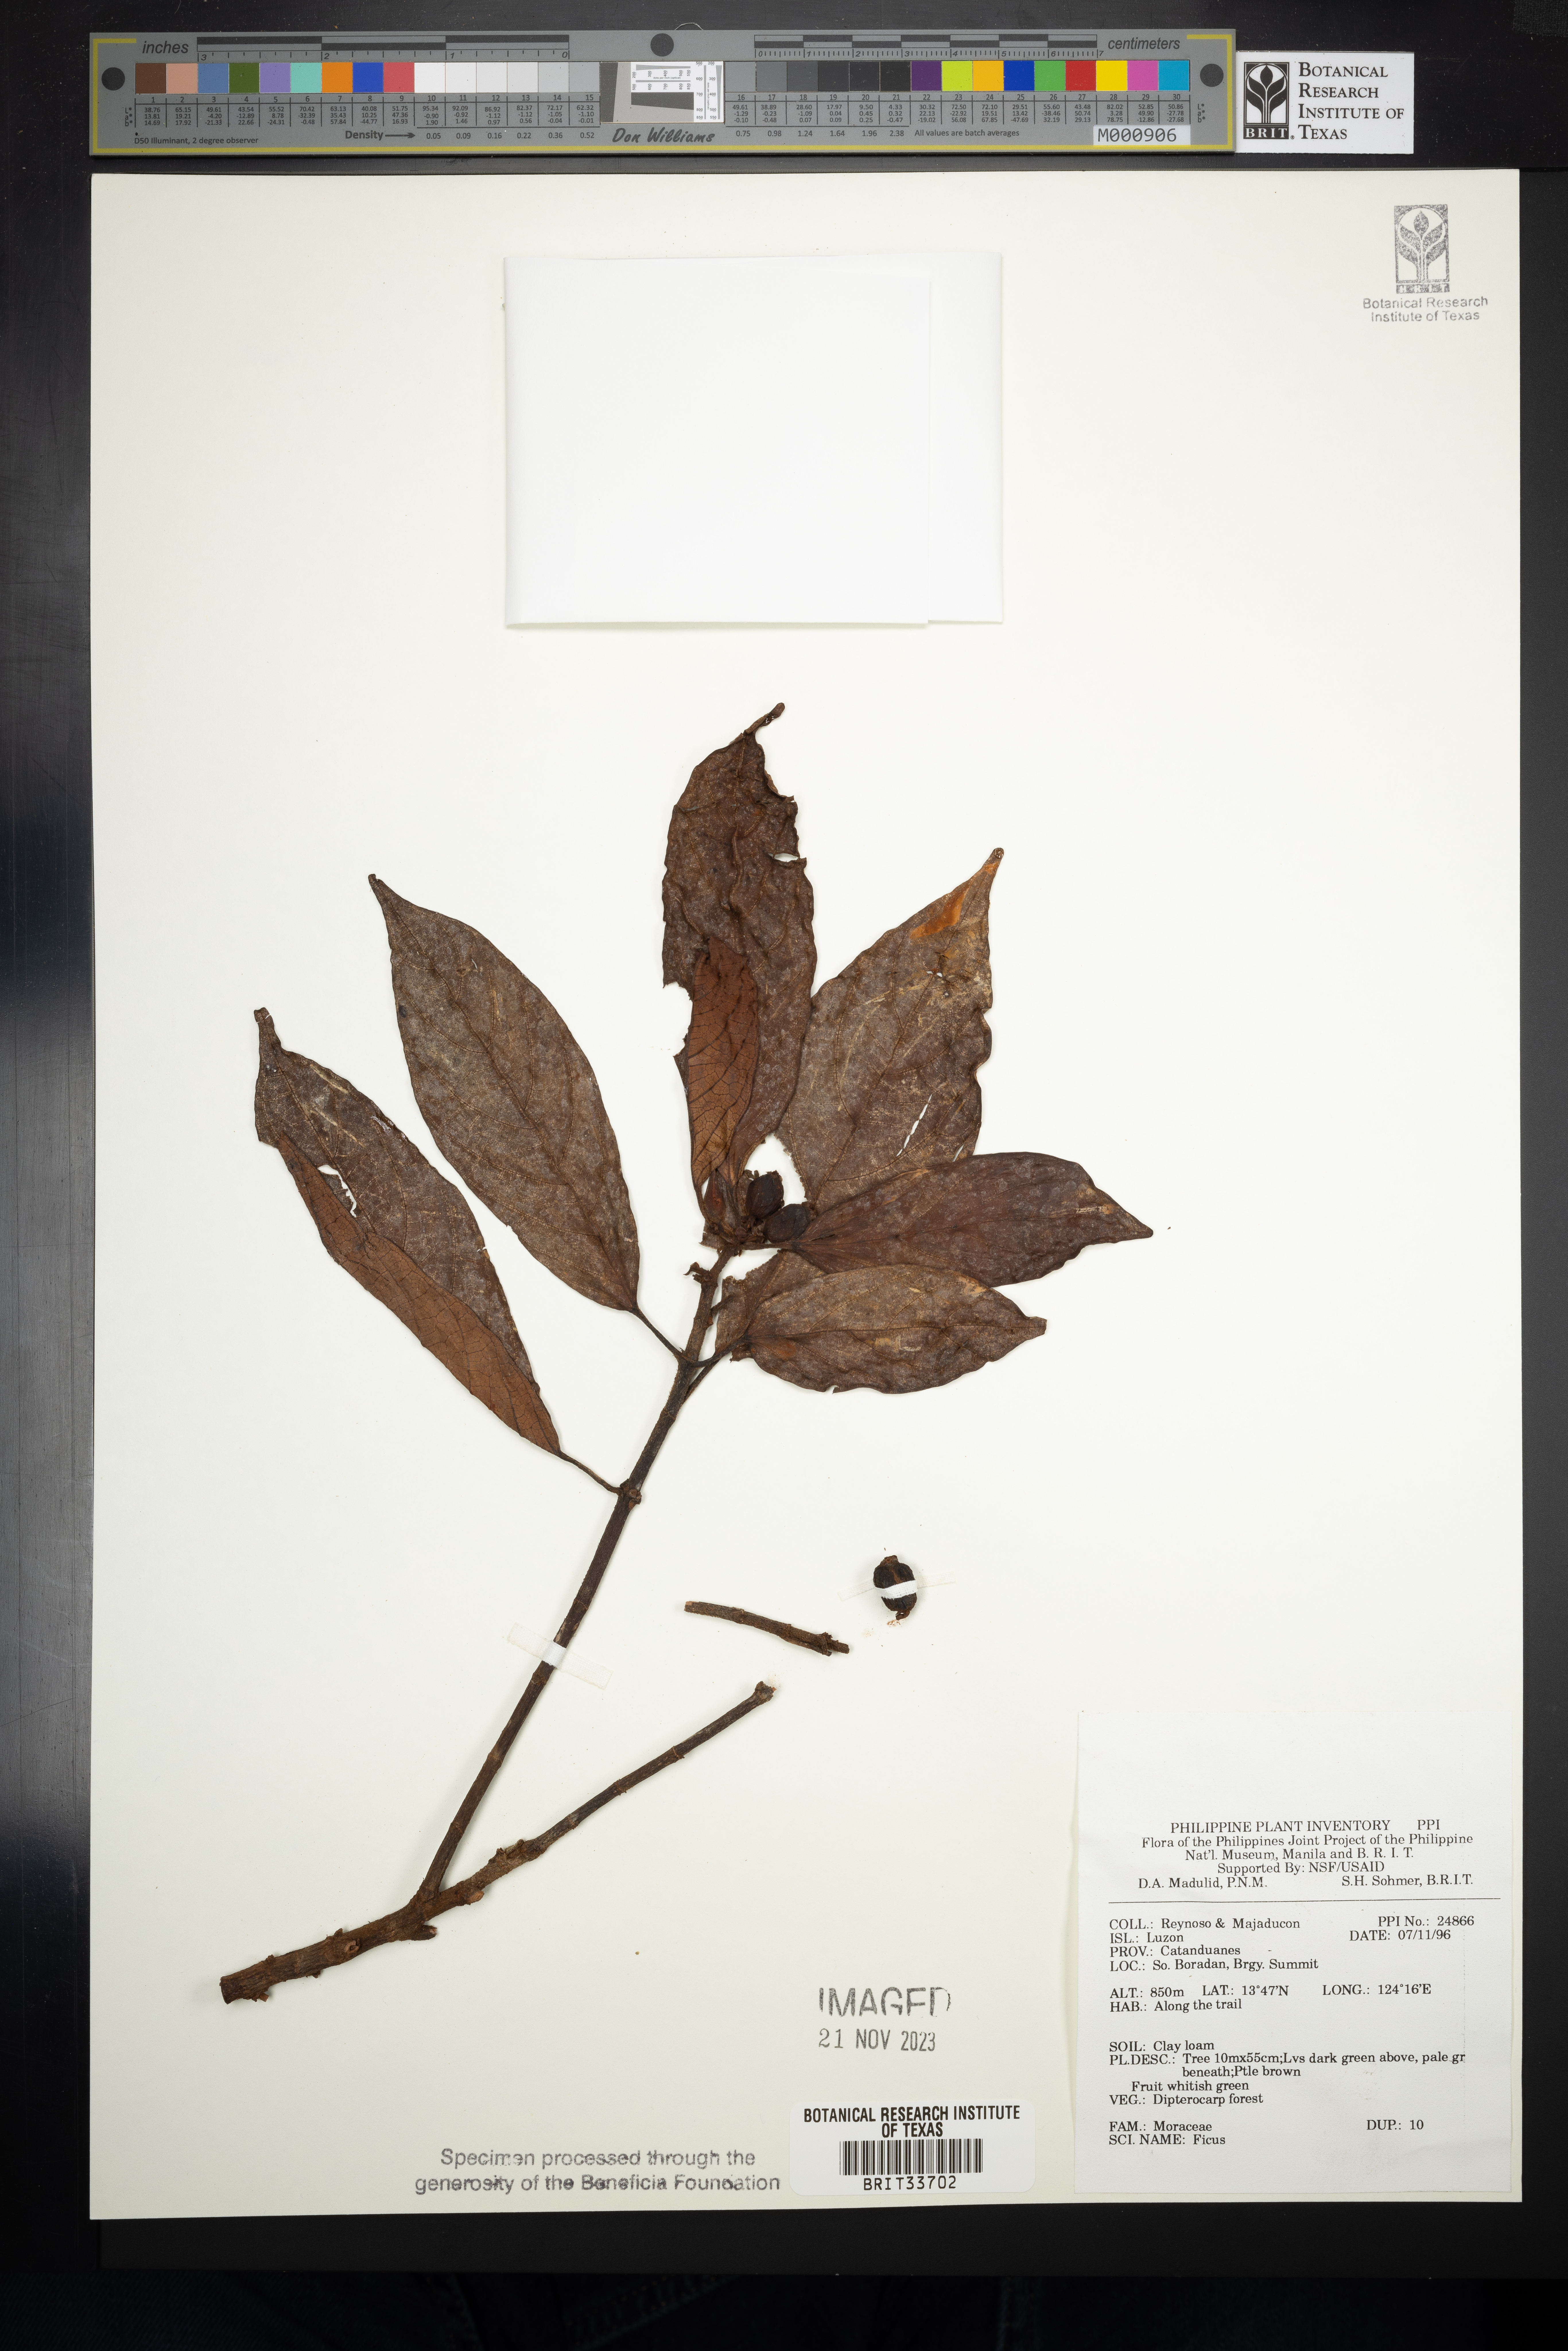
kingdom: Plantae
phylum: Tracheophyta
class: Magnoliopsida
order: Rosales
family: Moraceae
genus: Ficus
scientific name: Ficus
